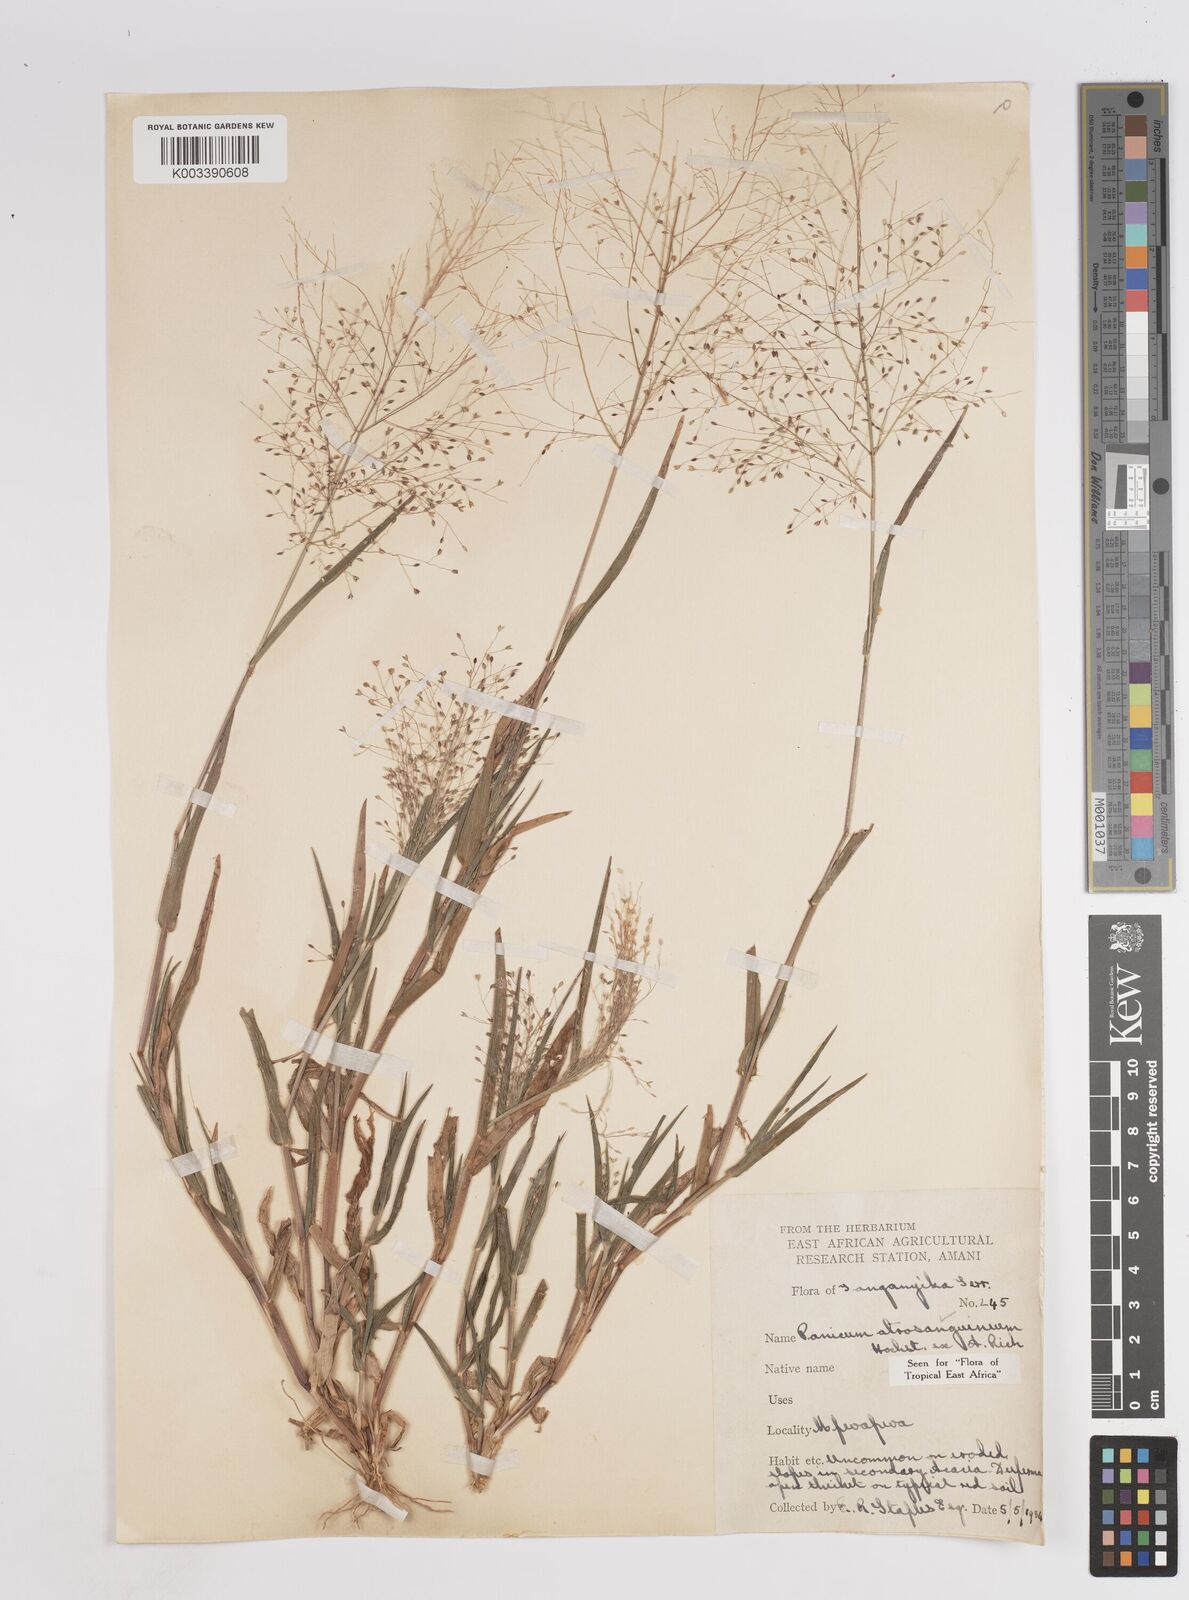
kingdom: Plantae
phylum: Tracheophyta
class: Liliopsida
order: Poales
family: Poaceae
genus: Panicum
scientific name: Panicum atrosanguineum
